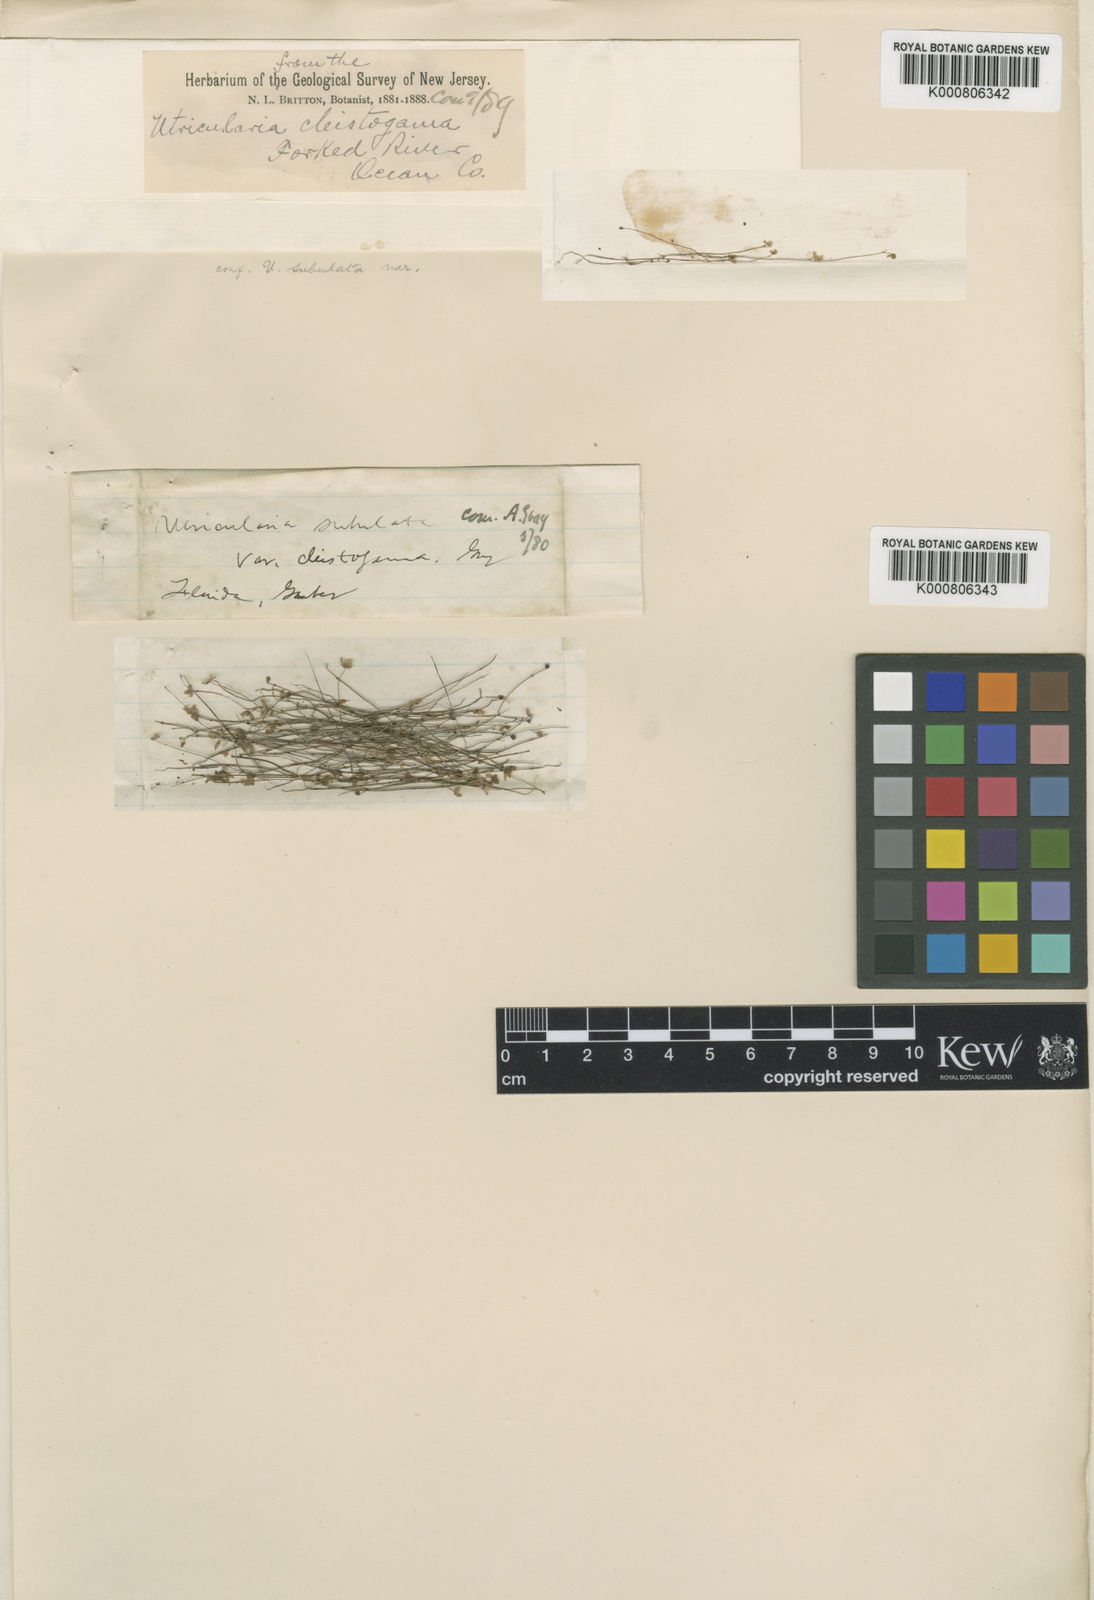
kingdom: Plantae
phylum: Tracheophyta
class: Magnoliopsida
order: Lamiales
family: Lentibulariaceae
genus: Utricularia
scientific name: Utricularia subulata
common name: Tiny bladderwort
